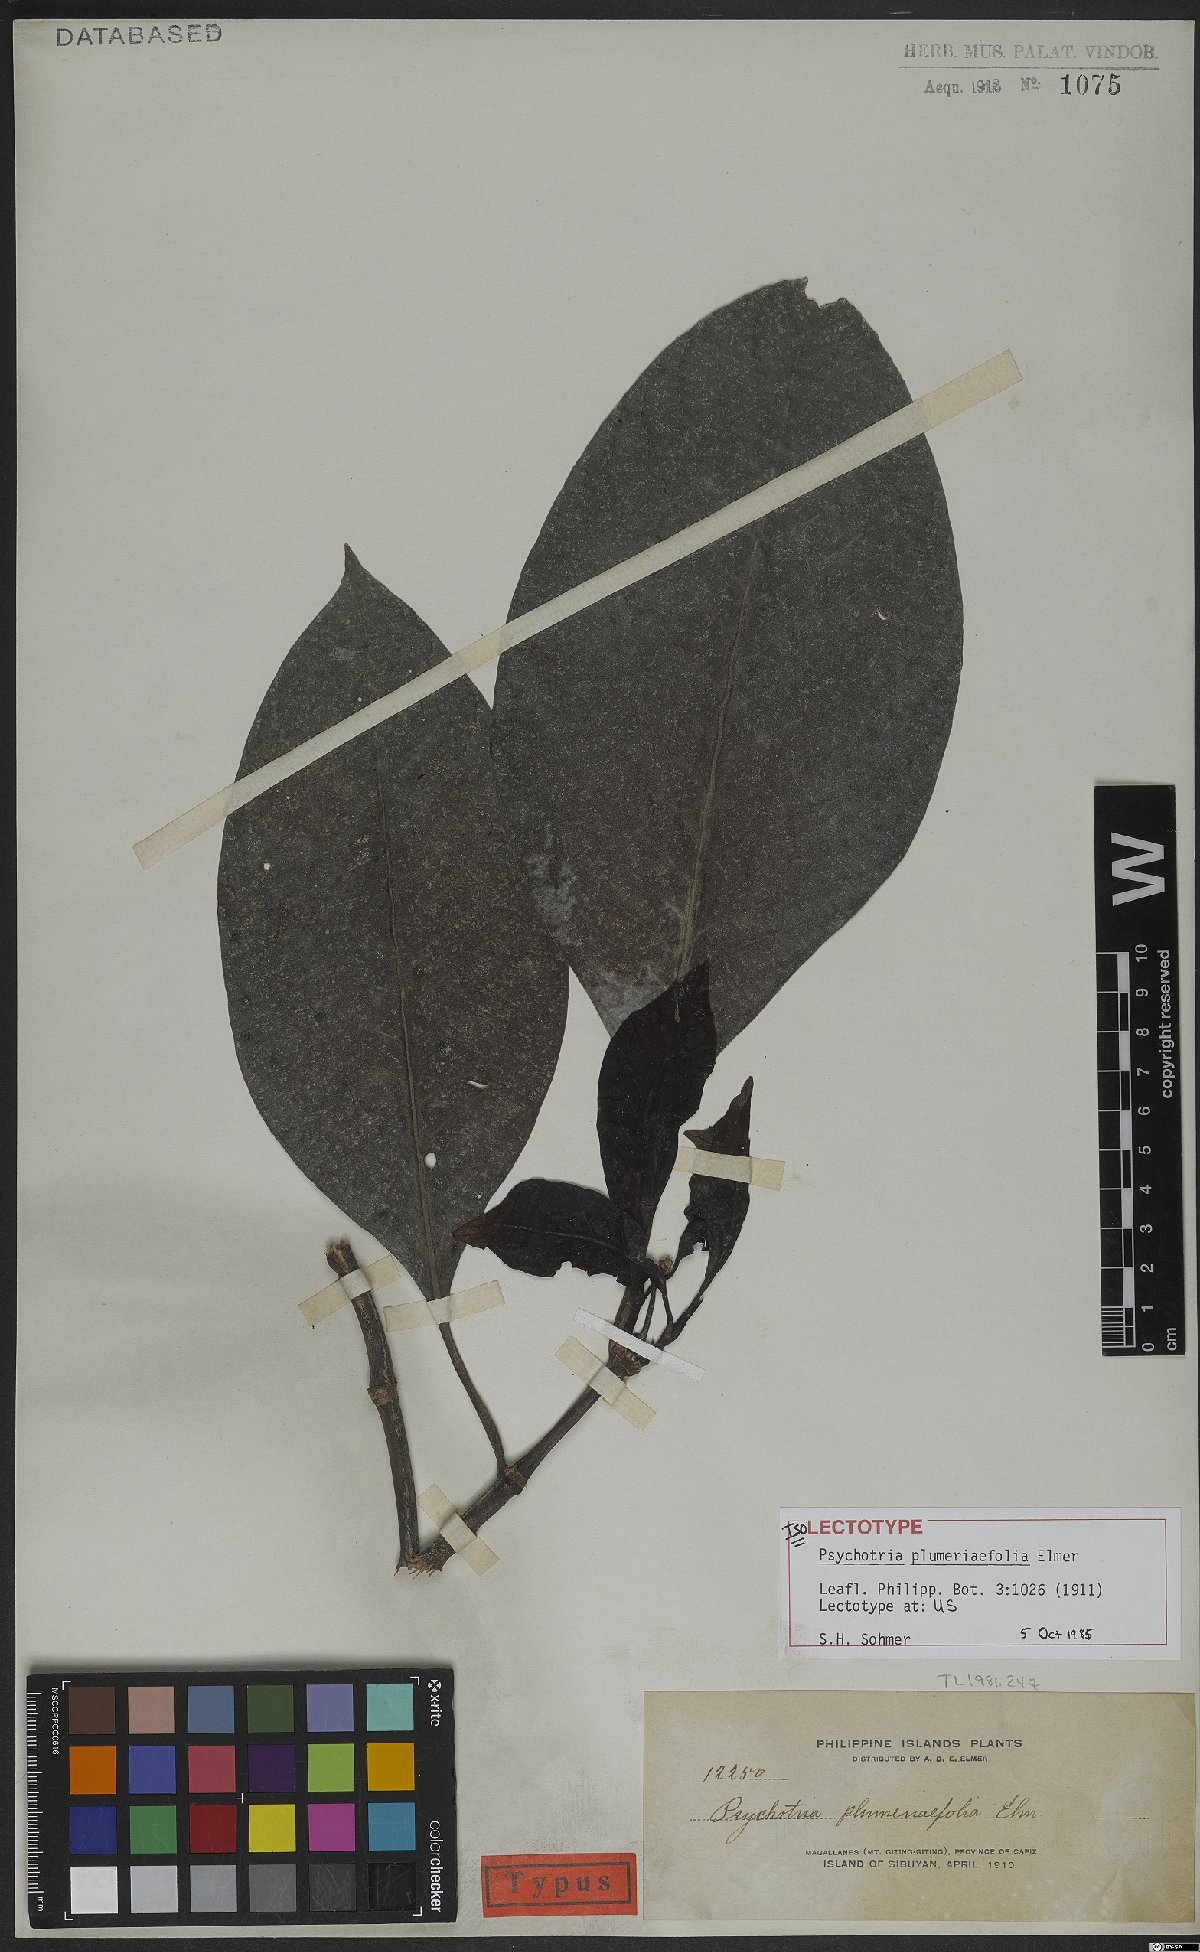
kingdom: Plantae
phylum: Tracheophyta
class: Magnoliopsida
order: Gentianales
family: Rubiaceae
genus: Psychotria
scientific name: Psychotria plumeriifolia
